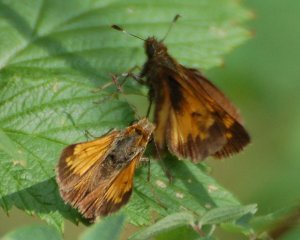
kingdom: Animalia
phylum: Arthropoda
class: Insecta
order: Lepidoptera
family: Hesperiidae
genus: Lon
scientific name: Lon hobomok
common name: Hobomok Skipper
